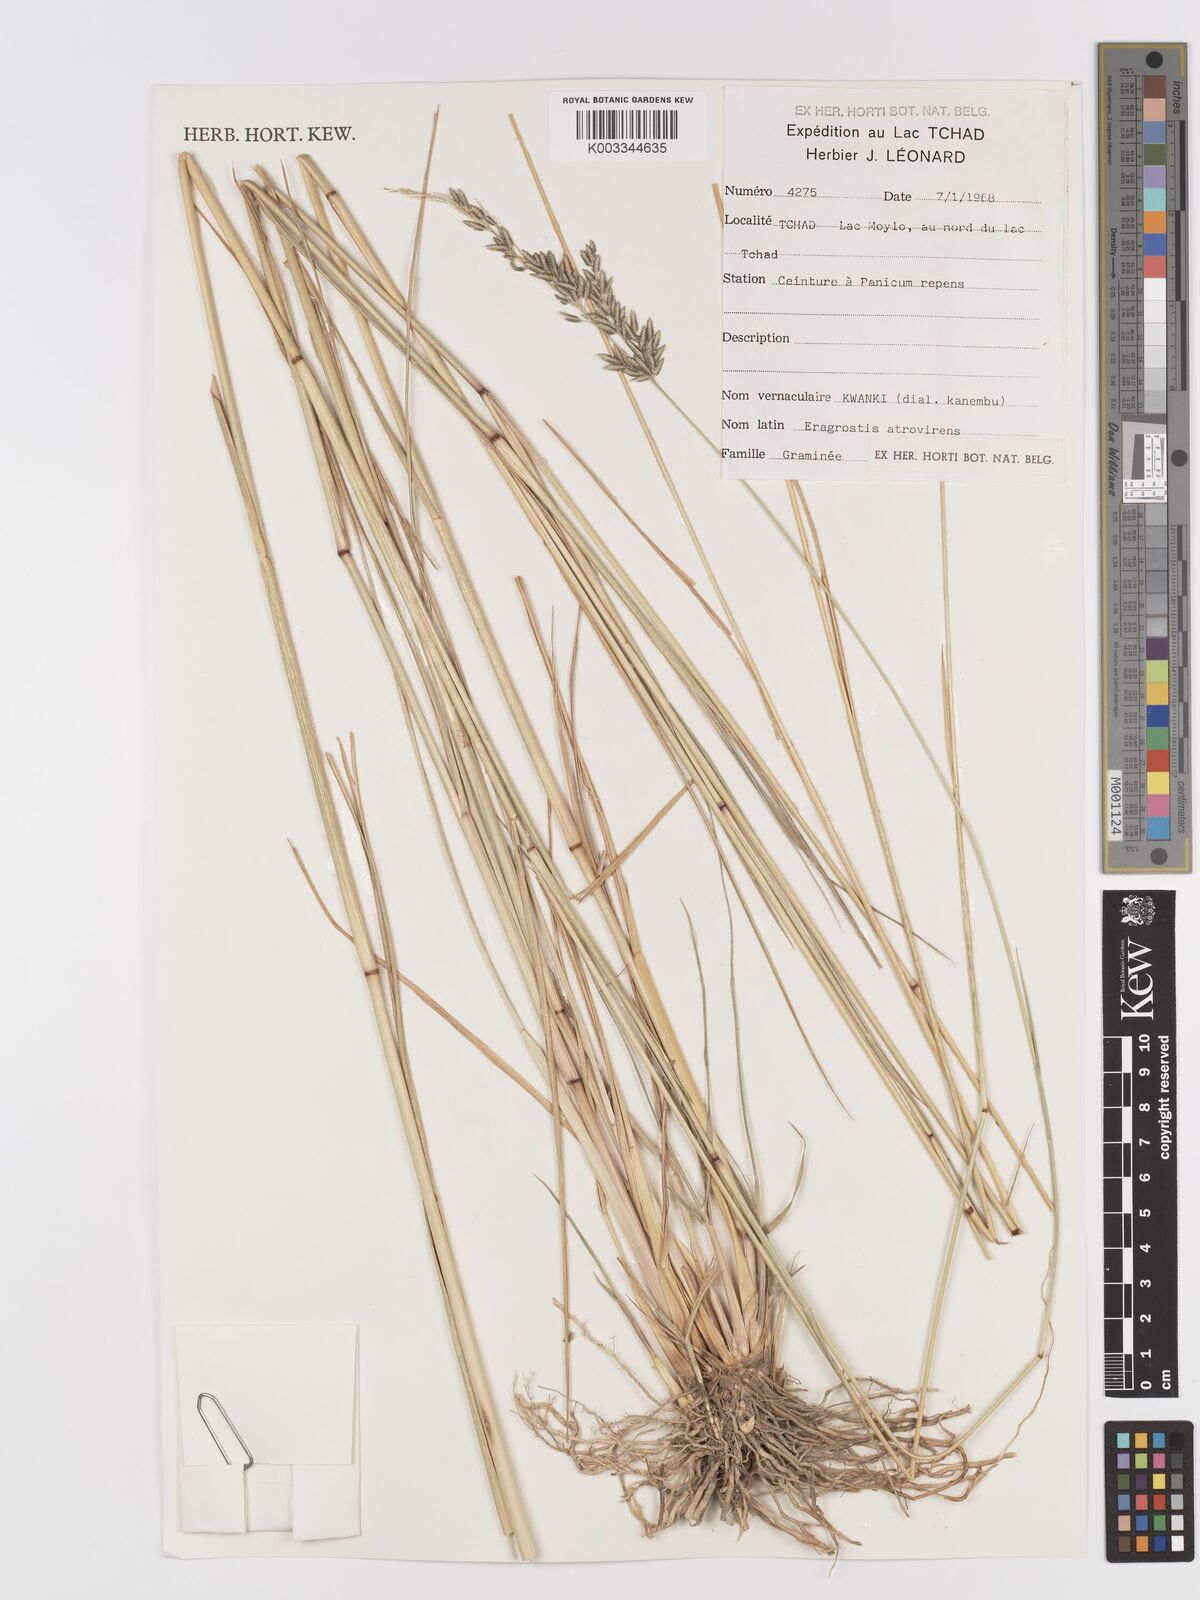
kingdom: Plantae
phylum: Tracheophyta
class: Liliopsida
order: Poales
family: Poaceae
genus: Eragrostis
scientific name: Eragrostis
